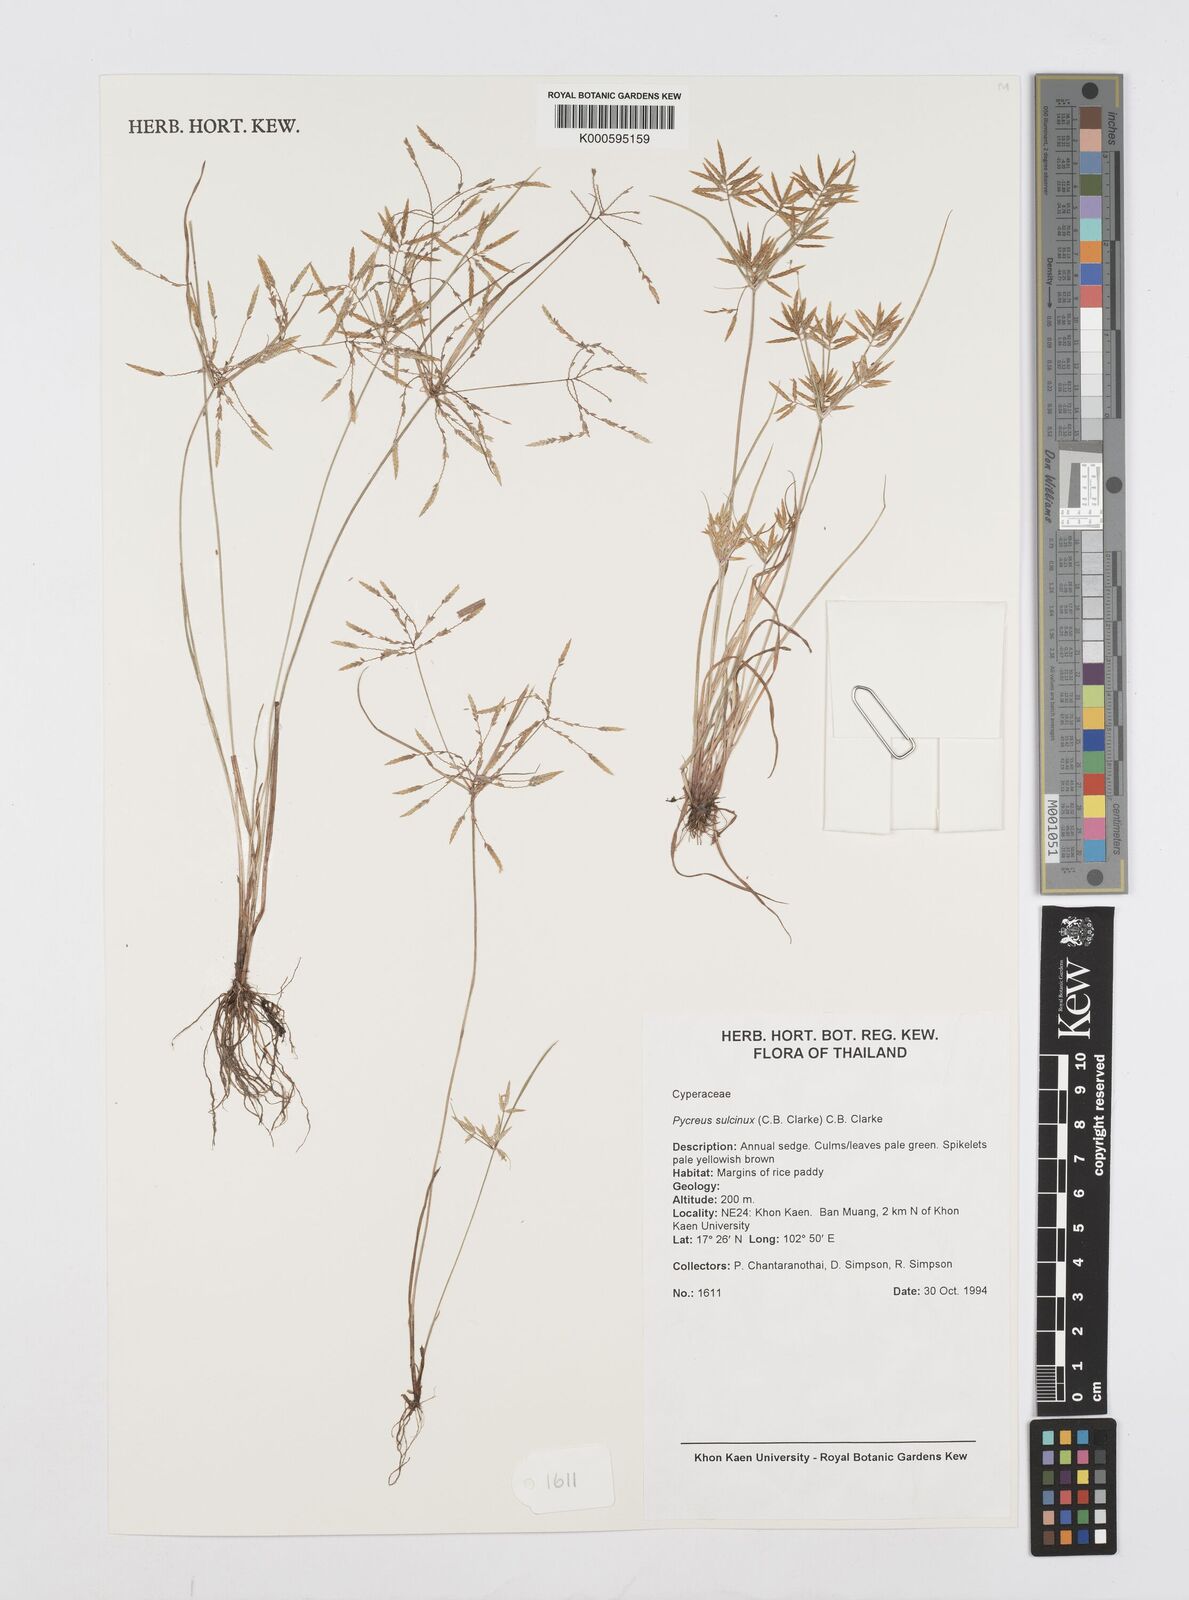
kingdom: Plantae
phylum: Tracheophyta
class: Liliopsida
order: Poales
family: Cyperaceae
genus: Cyperus
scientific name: Cyperus sulcinux
